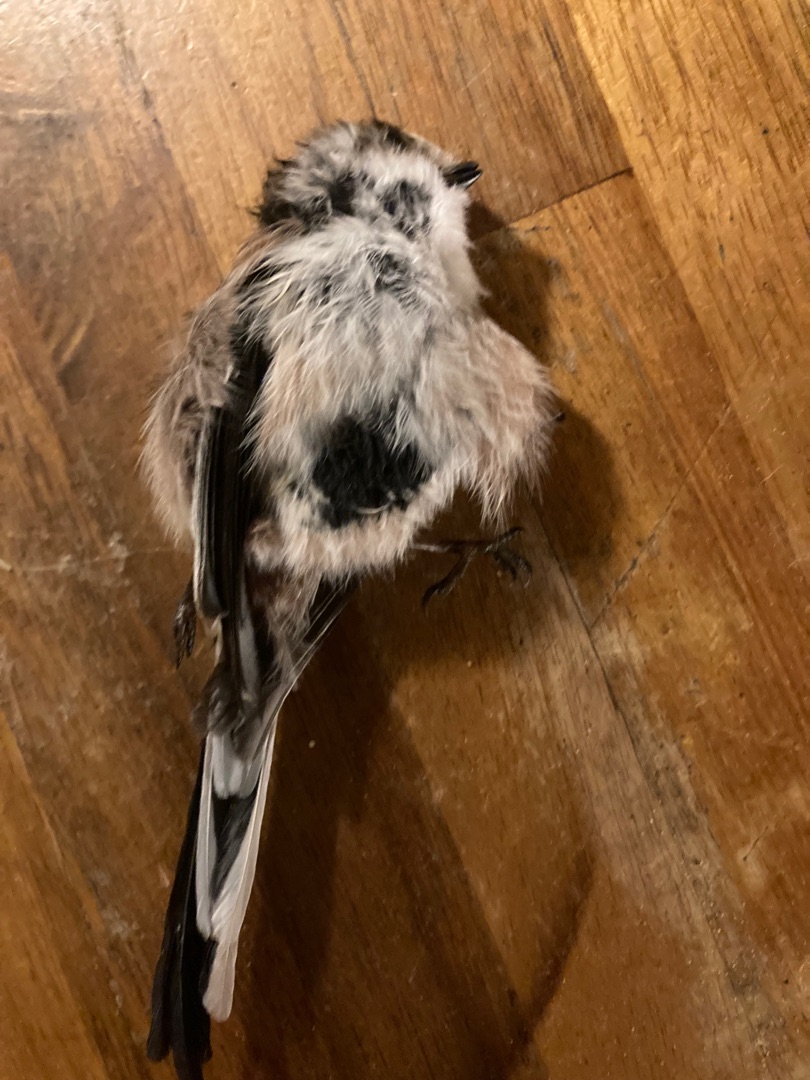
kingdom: Animalia
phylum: Chordata
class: Aves
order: Passeriformes
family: Aegithalidae
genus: Aegithalos
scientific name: Aegithalos caudatus
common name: Halemejse
